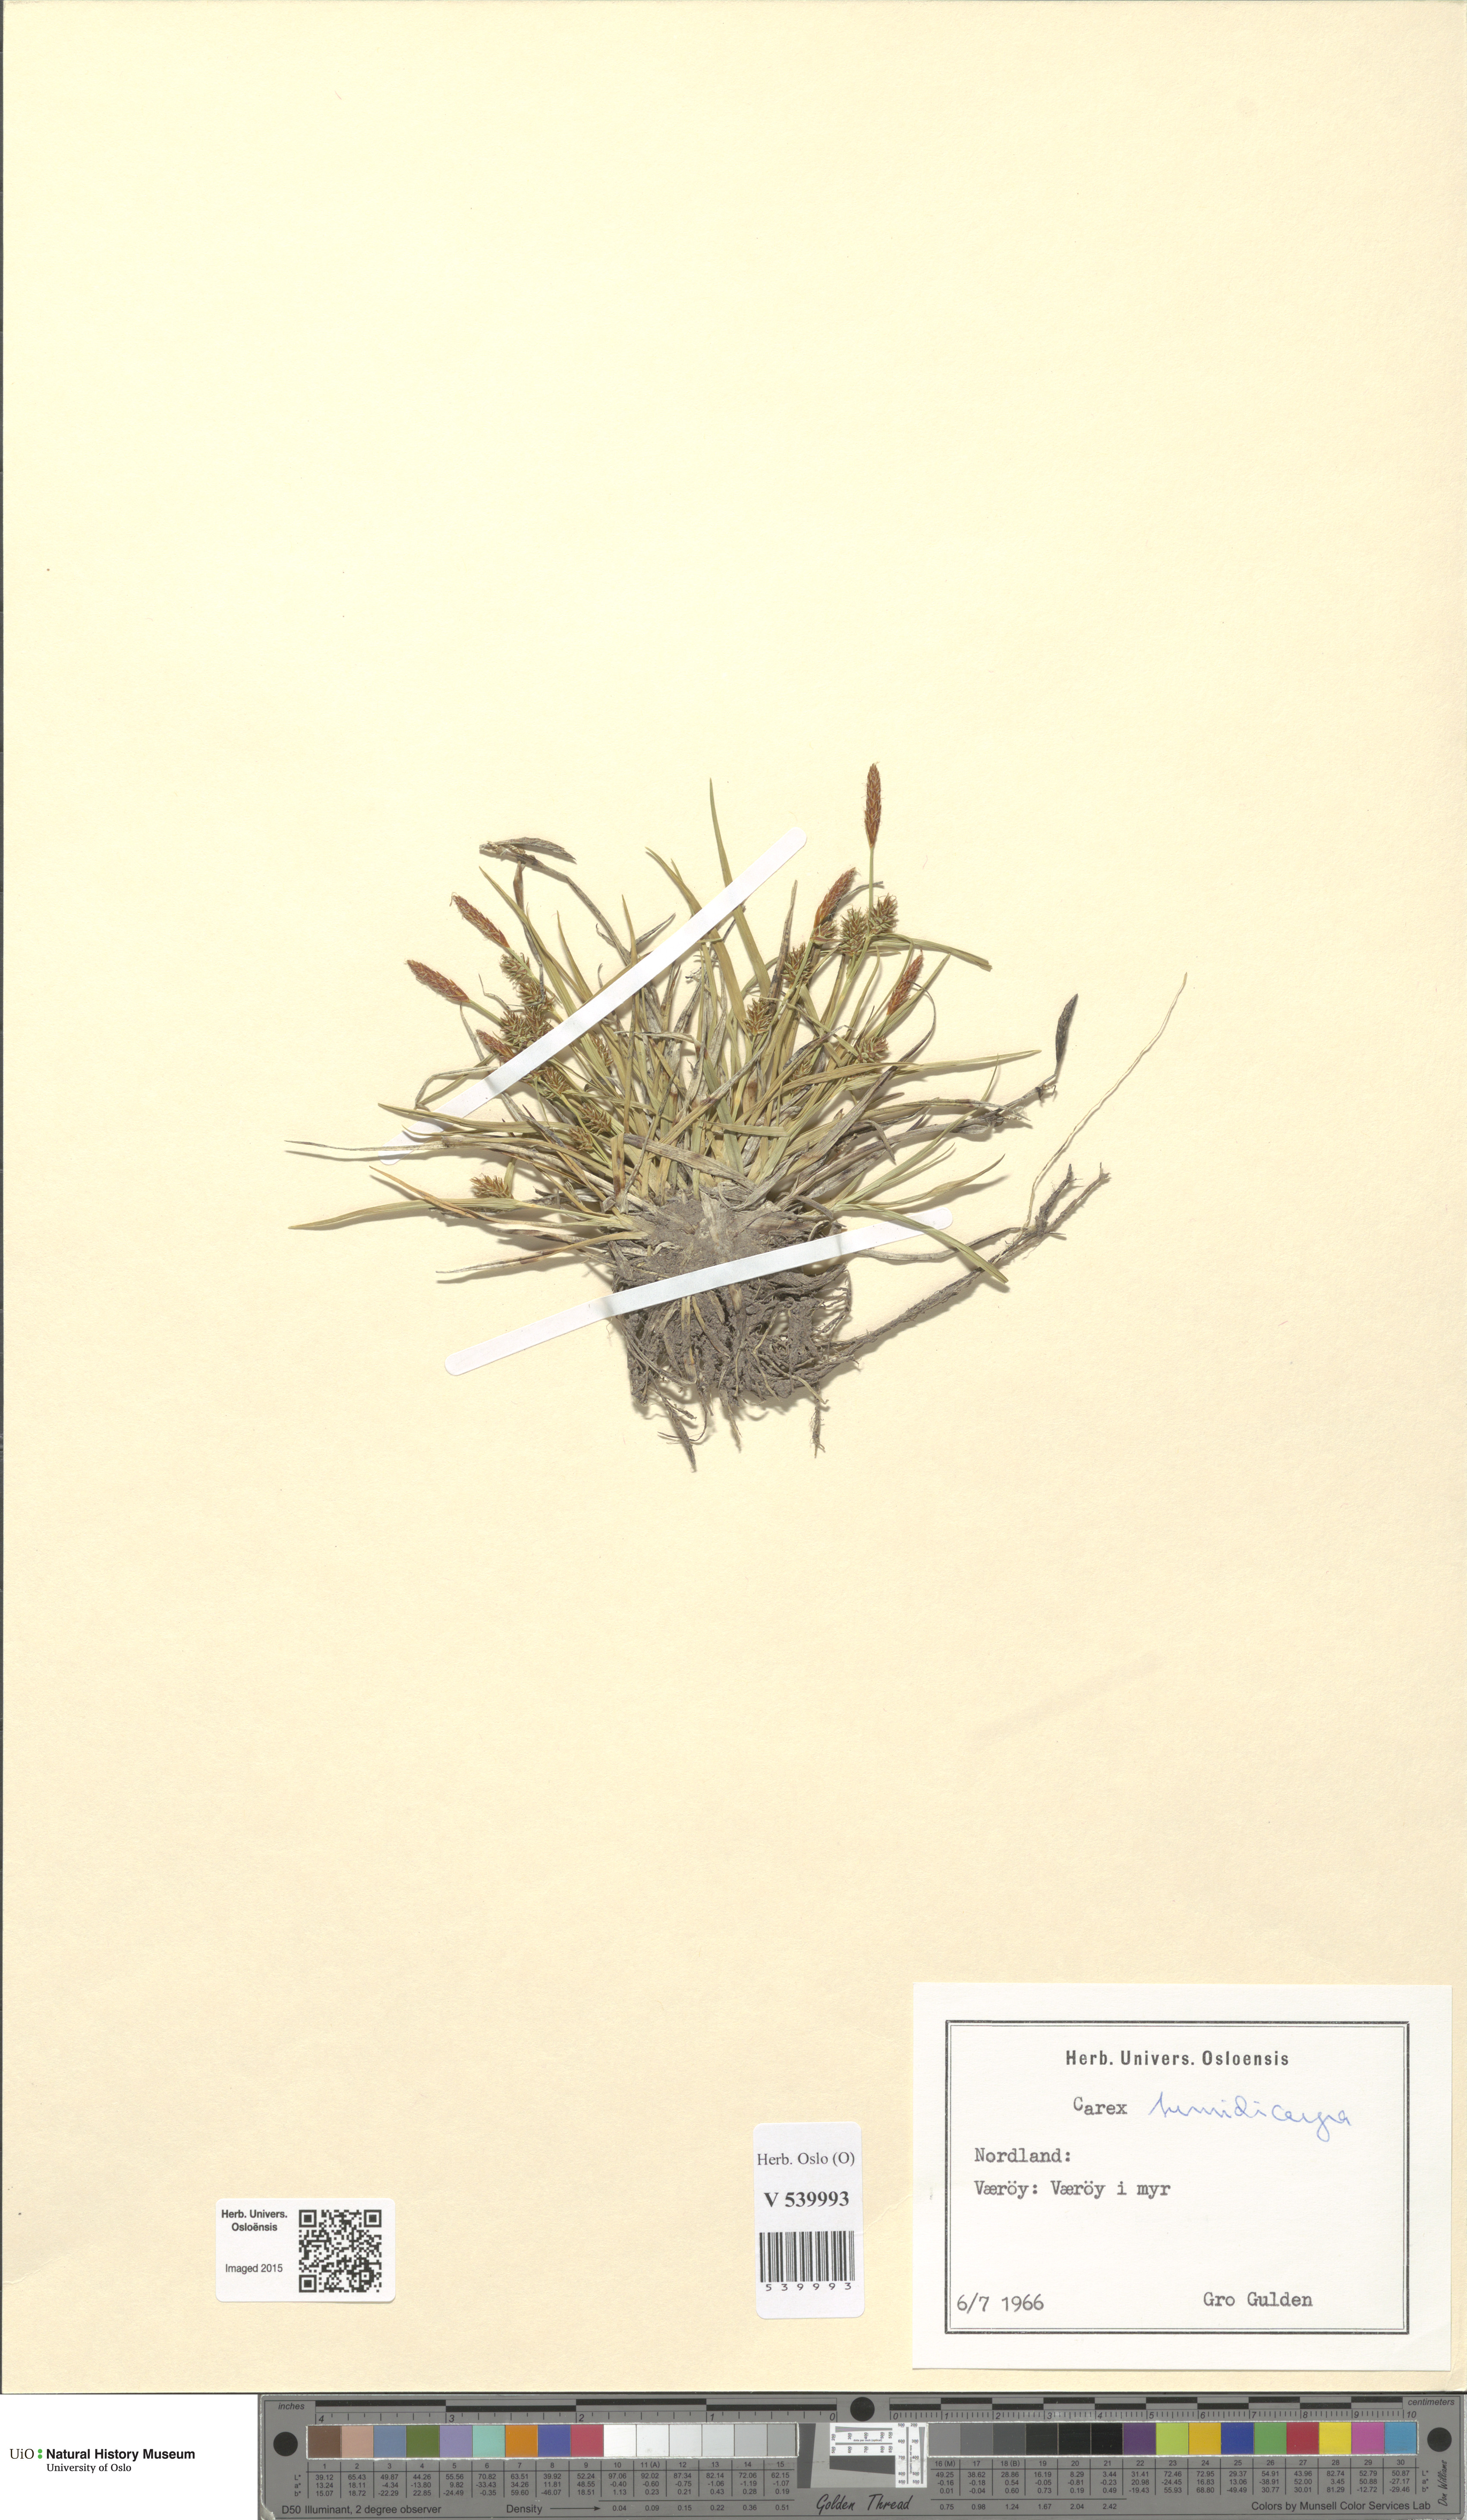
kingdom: Plantae
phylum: Tracheophyta
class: Liliopsida
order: Poales
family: Cyperaceae
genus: Carex
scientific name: Carex demissa
